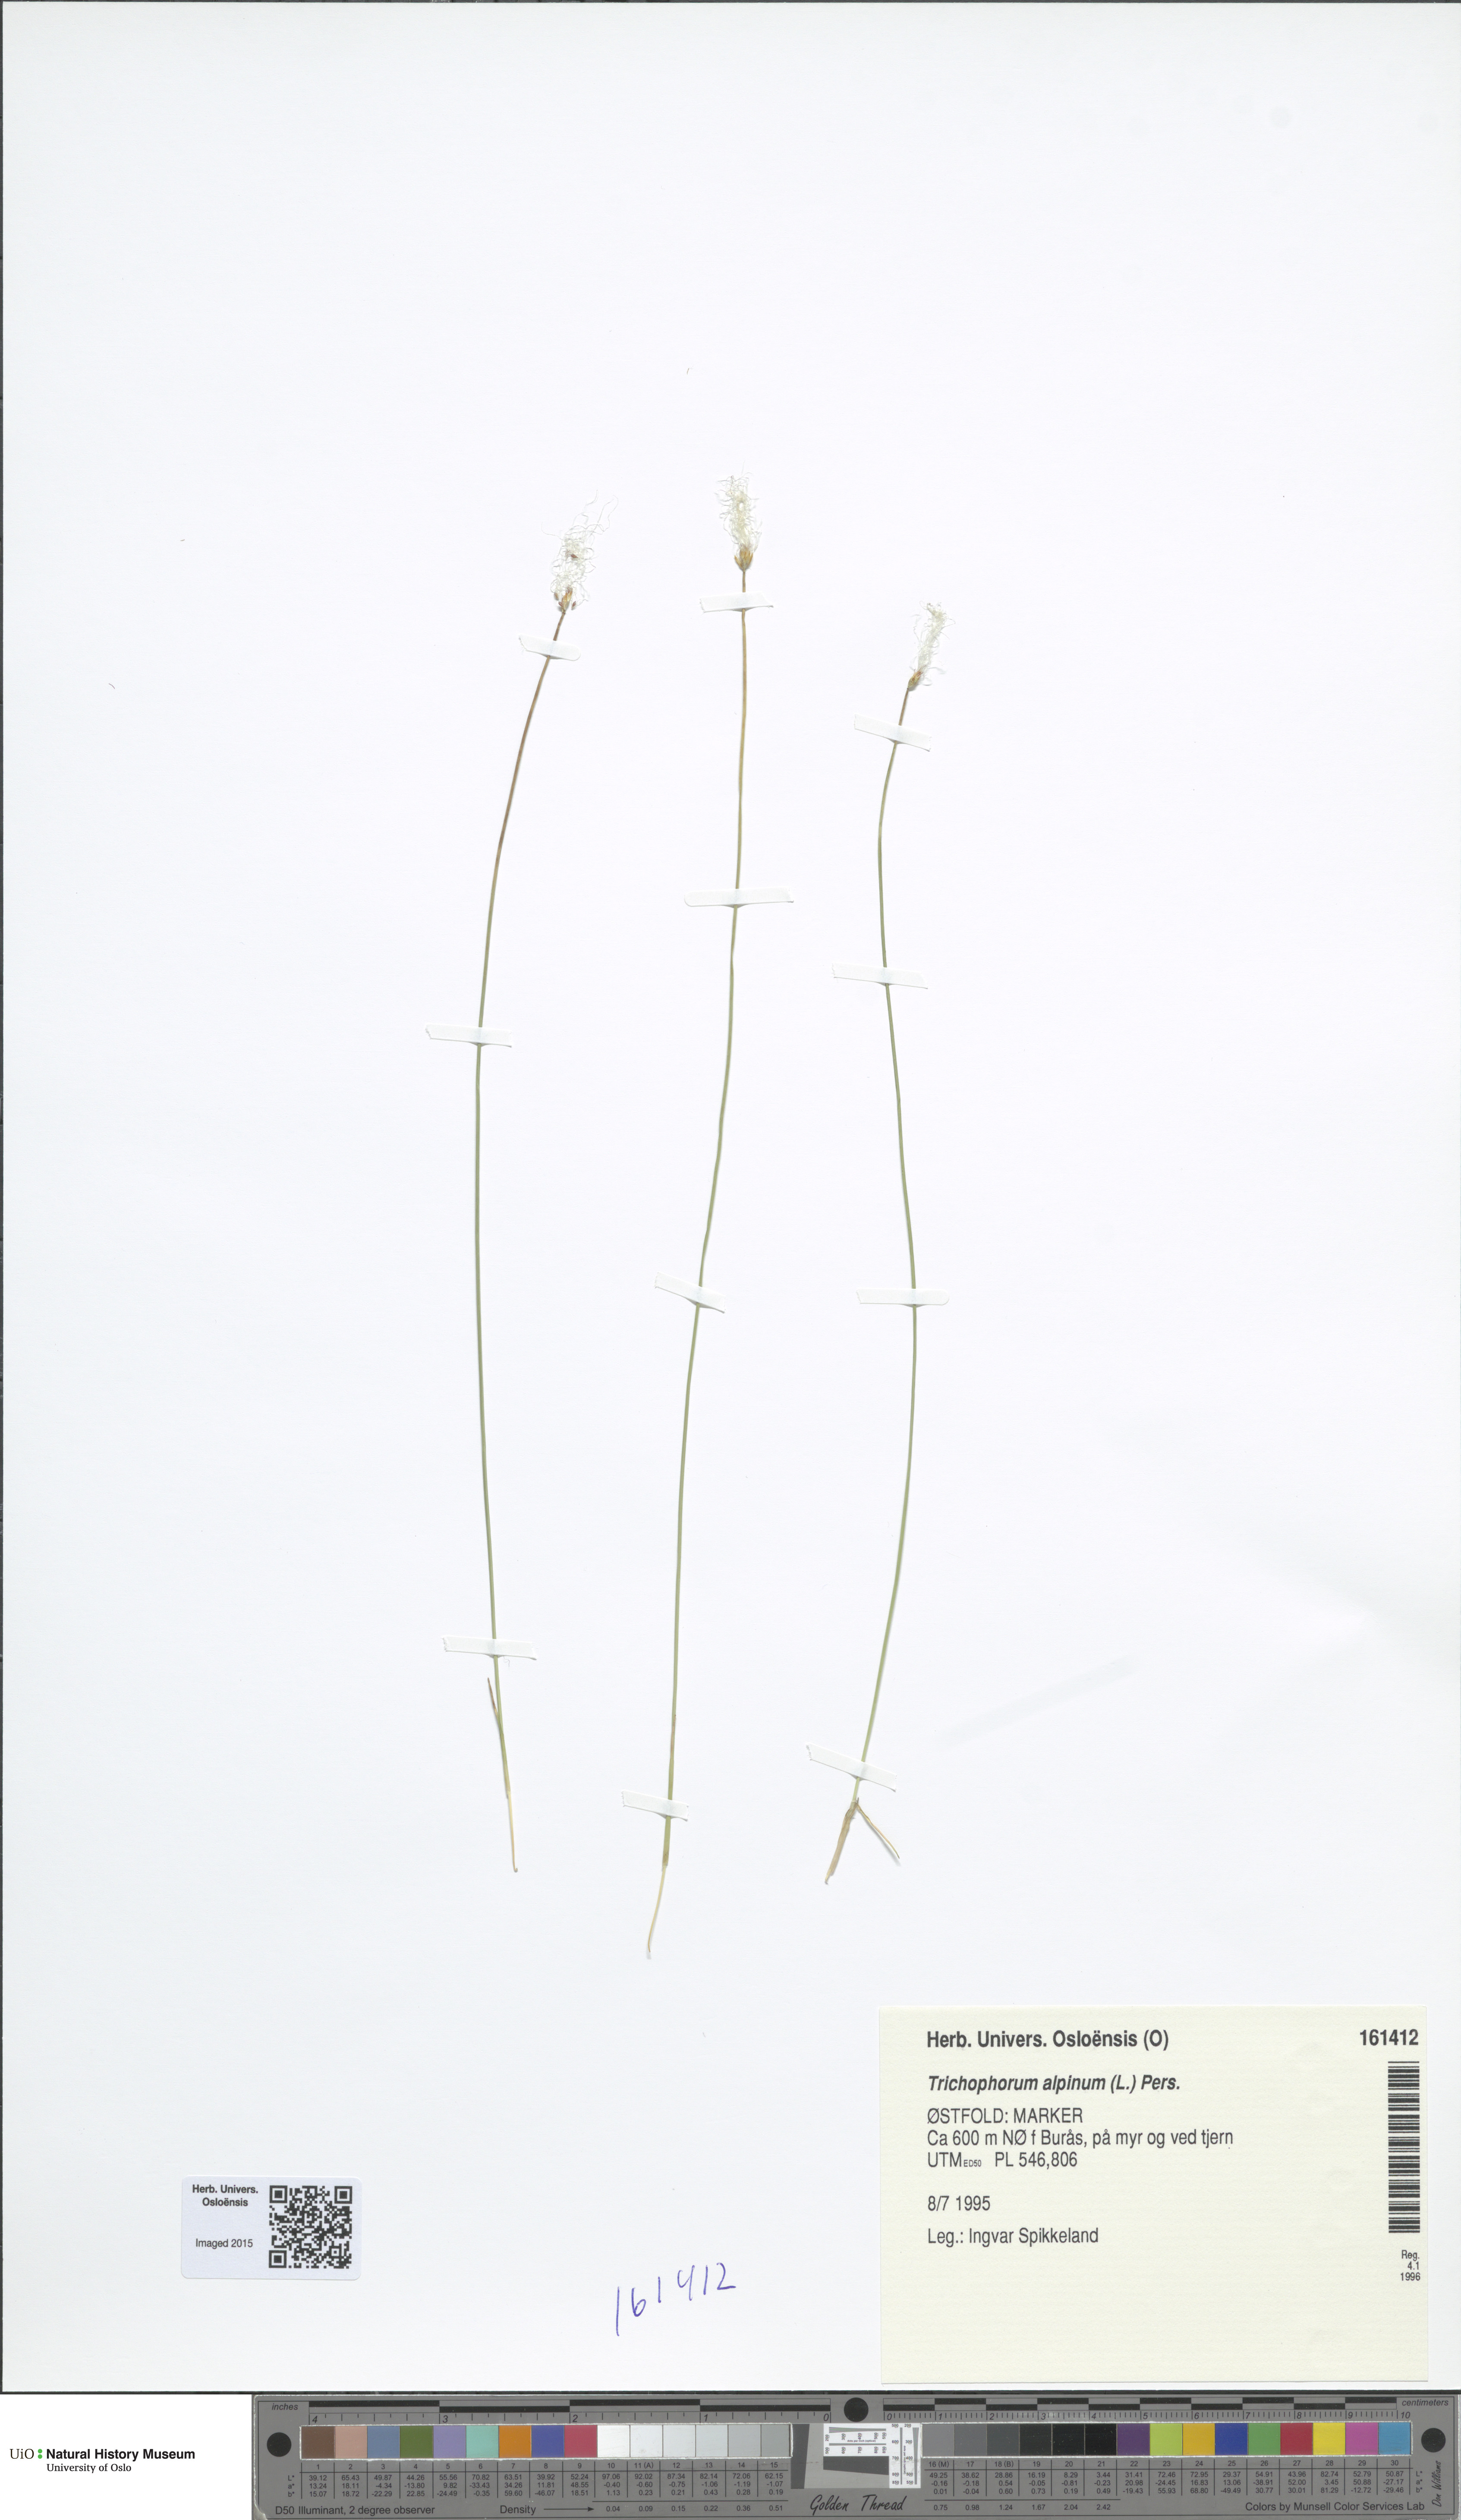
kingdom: Plantae
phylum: Tracheophyta
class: Liliopsida
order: Poales
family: Cyperaceae
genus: Trichophorum
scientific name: Trichophorum alpinum
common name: Alpine bulrush
